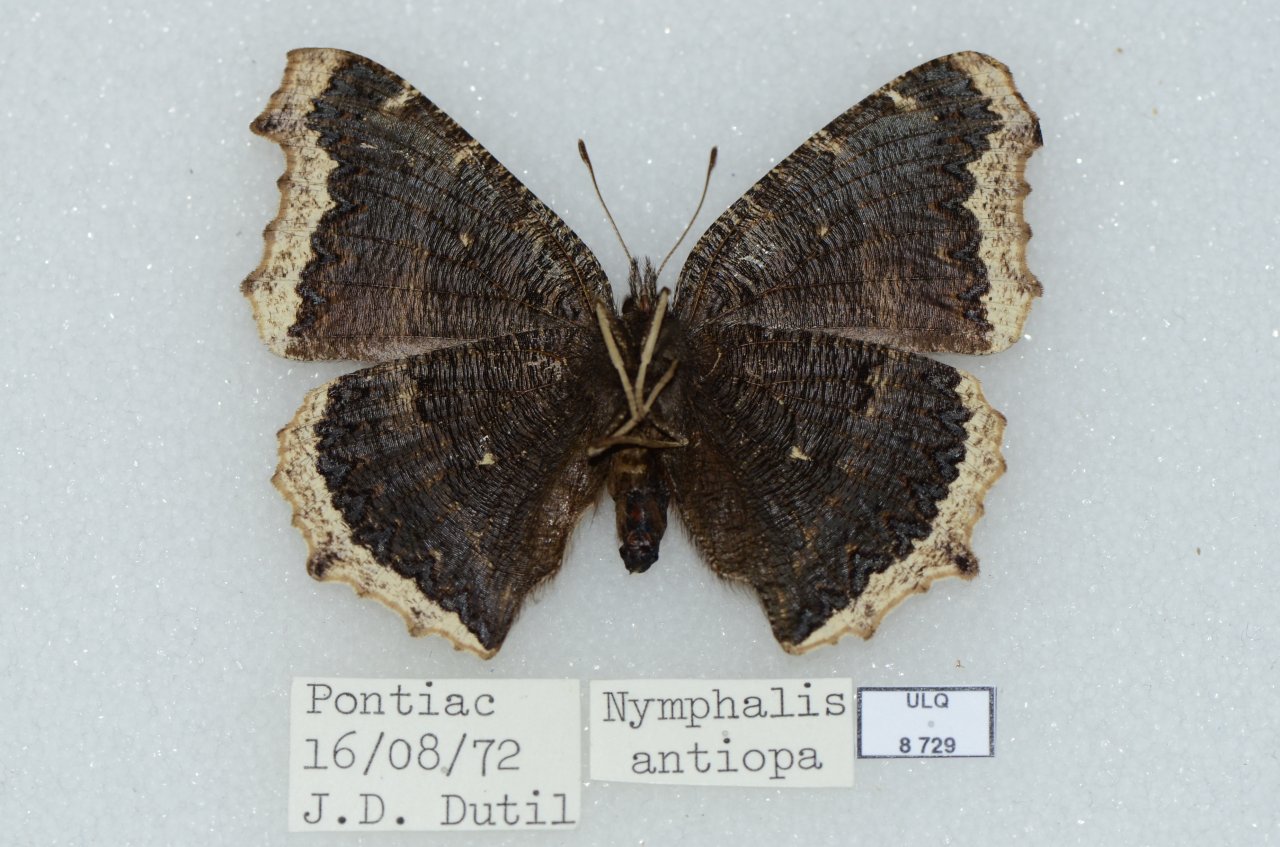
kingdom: Animalia
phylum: Arthropoda
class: Insecta
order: Lepidoptera
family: Nymphalidae
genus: Nymphalis
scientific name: Nymphalis antiopa
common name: Mourning Cloak
